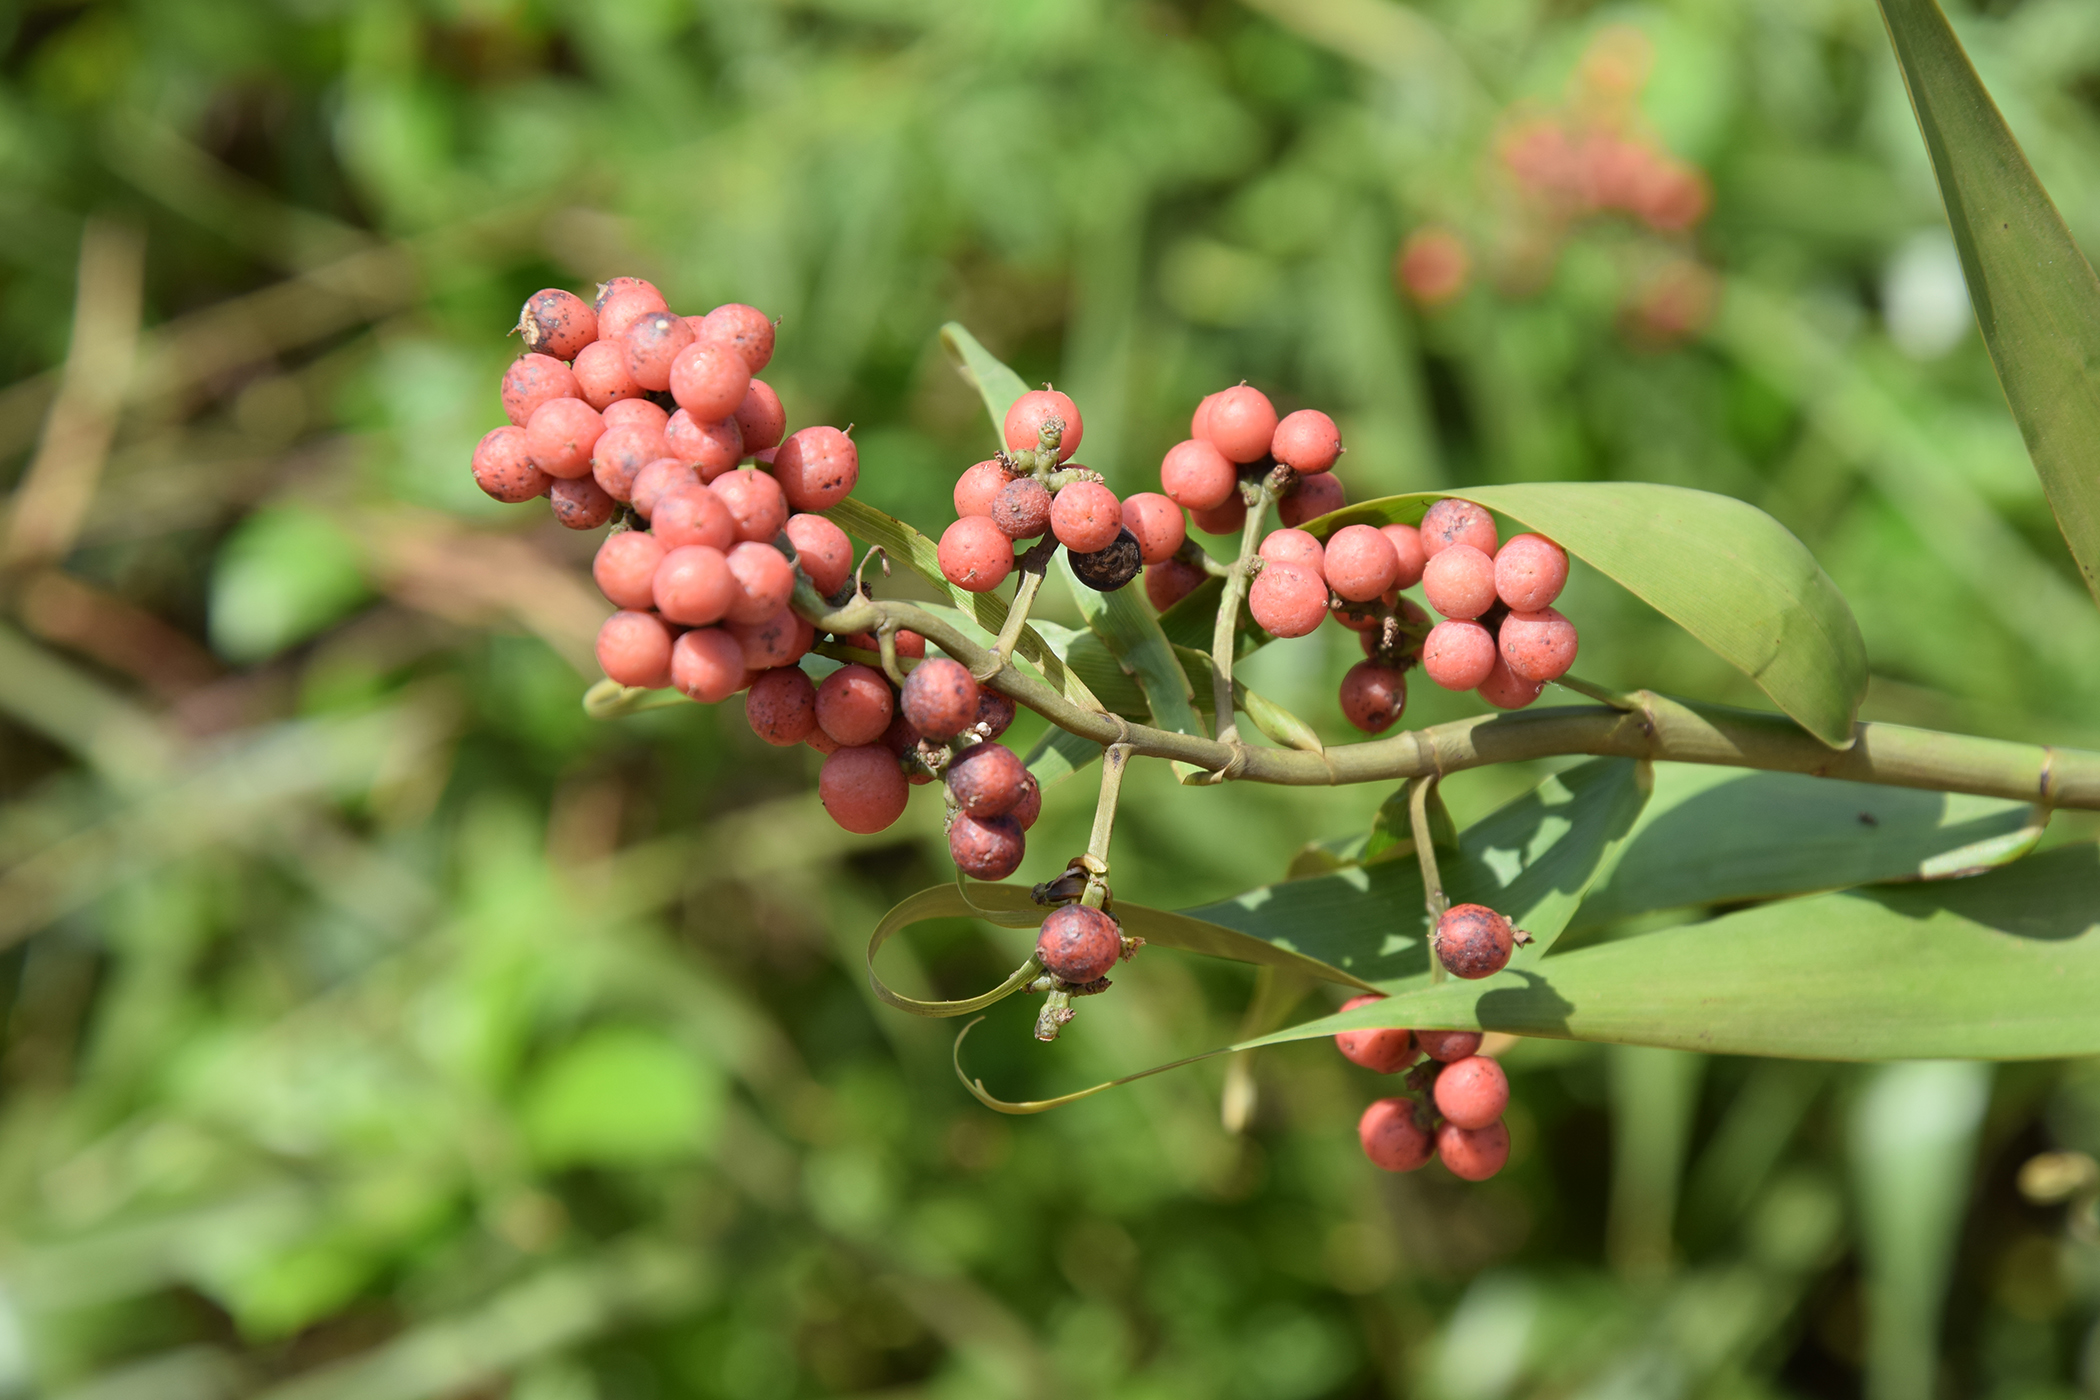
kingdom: Plantae
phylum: Tracheophyta
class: Liliopsida
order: Poales
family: Flagellariaceae
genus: Flagellaria
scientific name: Flagellaria indica
